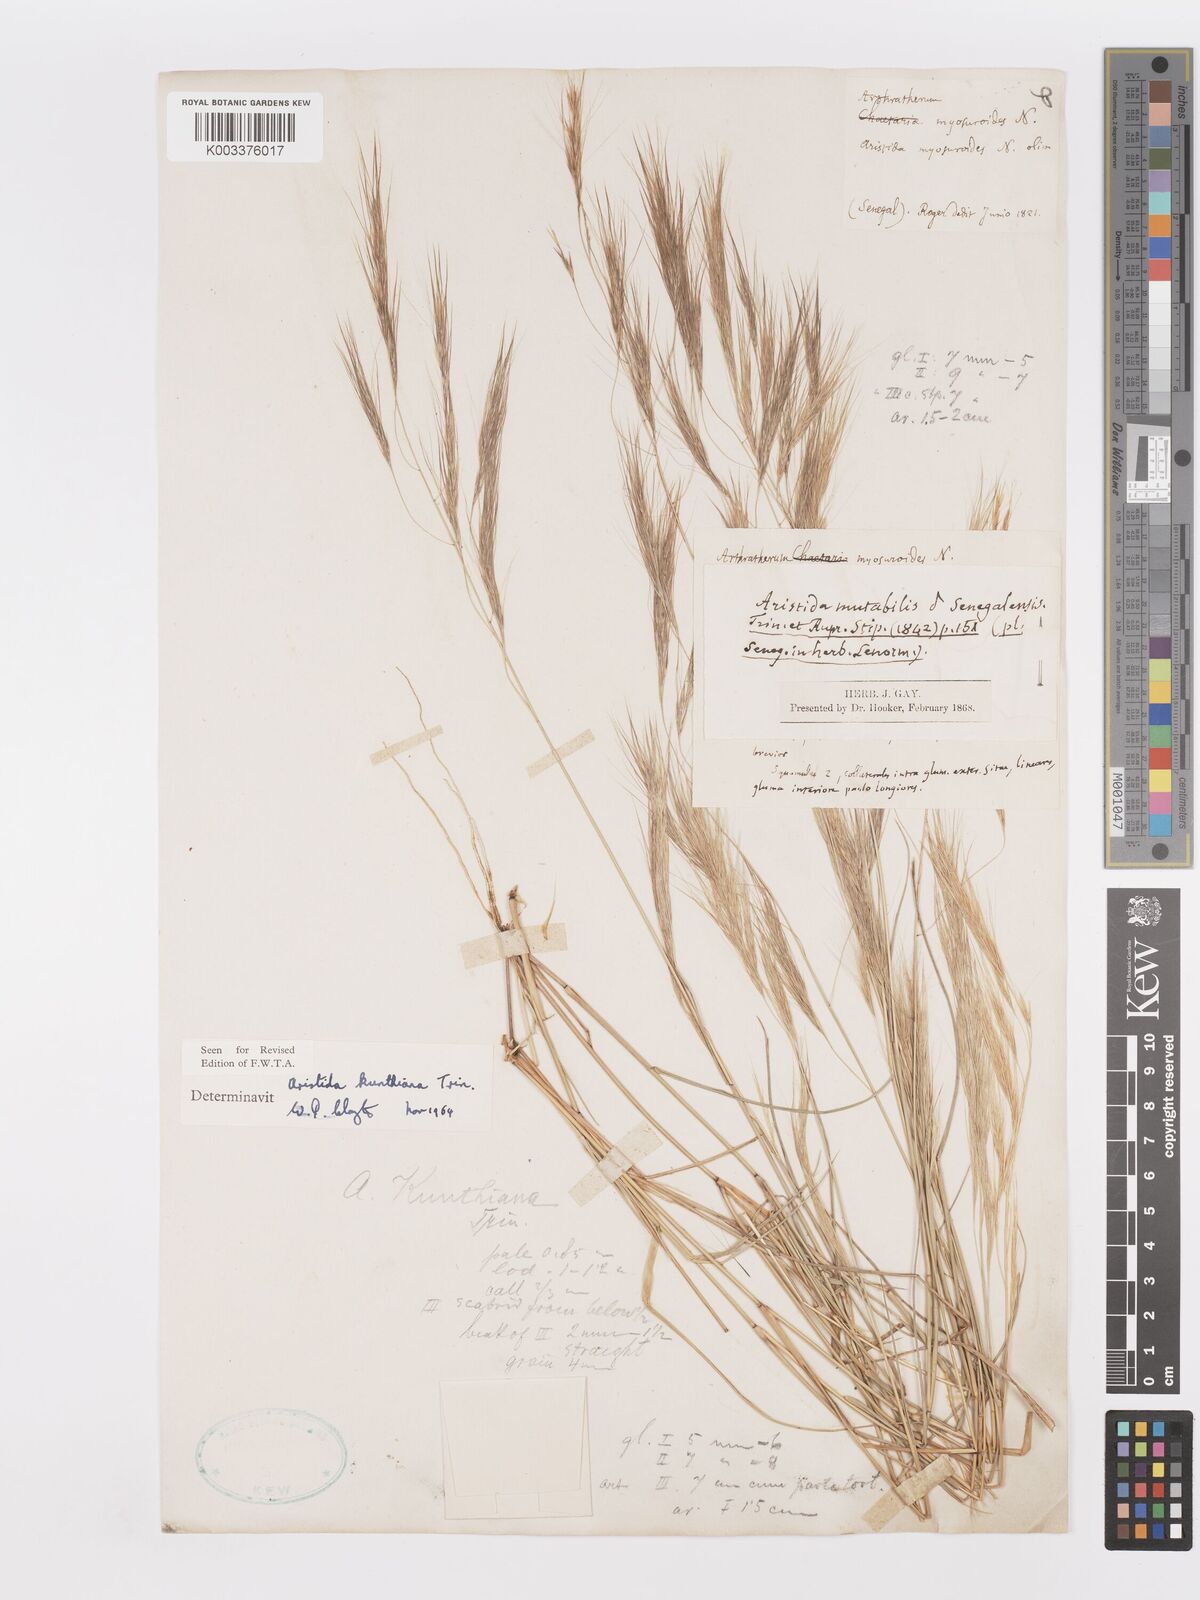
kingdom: Plantae
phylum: Tracheophyta
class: Liliopsida
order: Poales
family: Poaceae
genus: Aristida
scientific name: Aristida mutabilis
